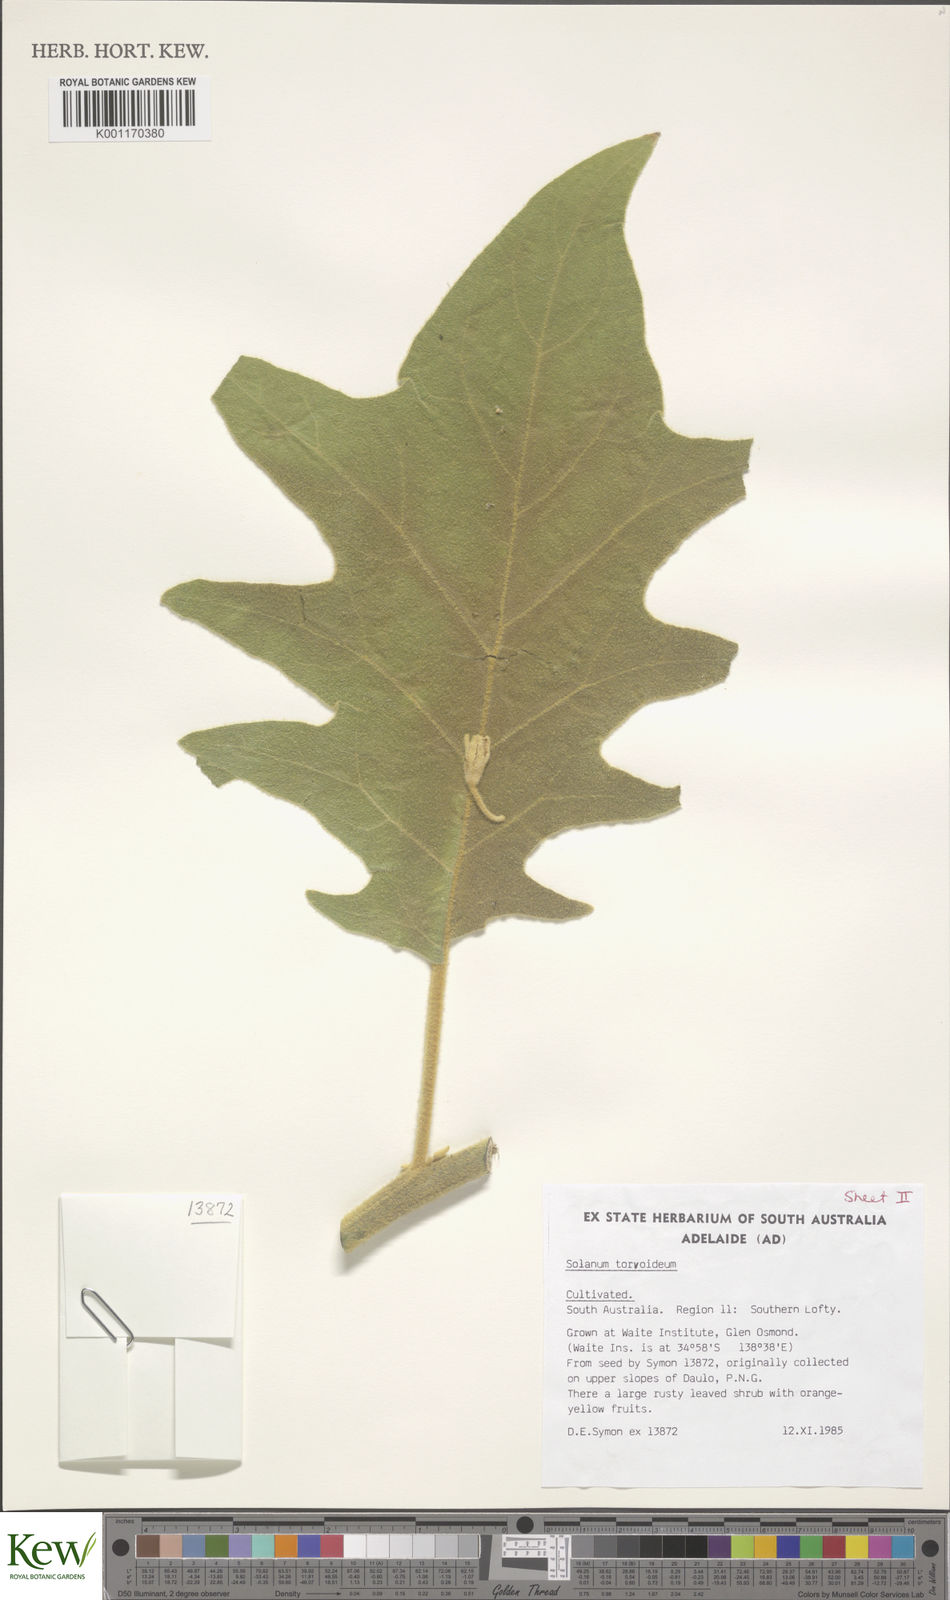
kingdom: Plantae
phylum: Tracheophyta
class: Magnoliopsida
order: Solanales
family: Solanaceae
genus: Solanum
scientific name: Solanum torvoideum
